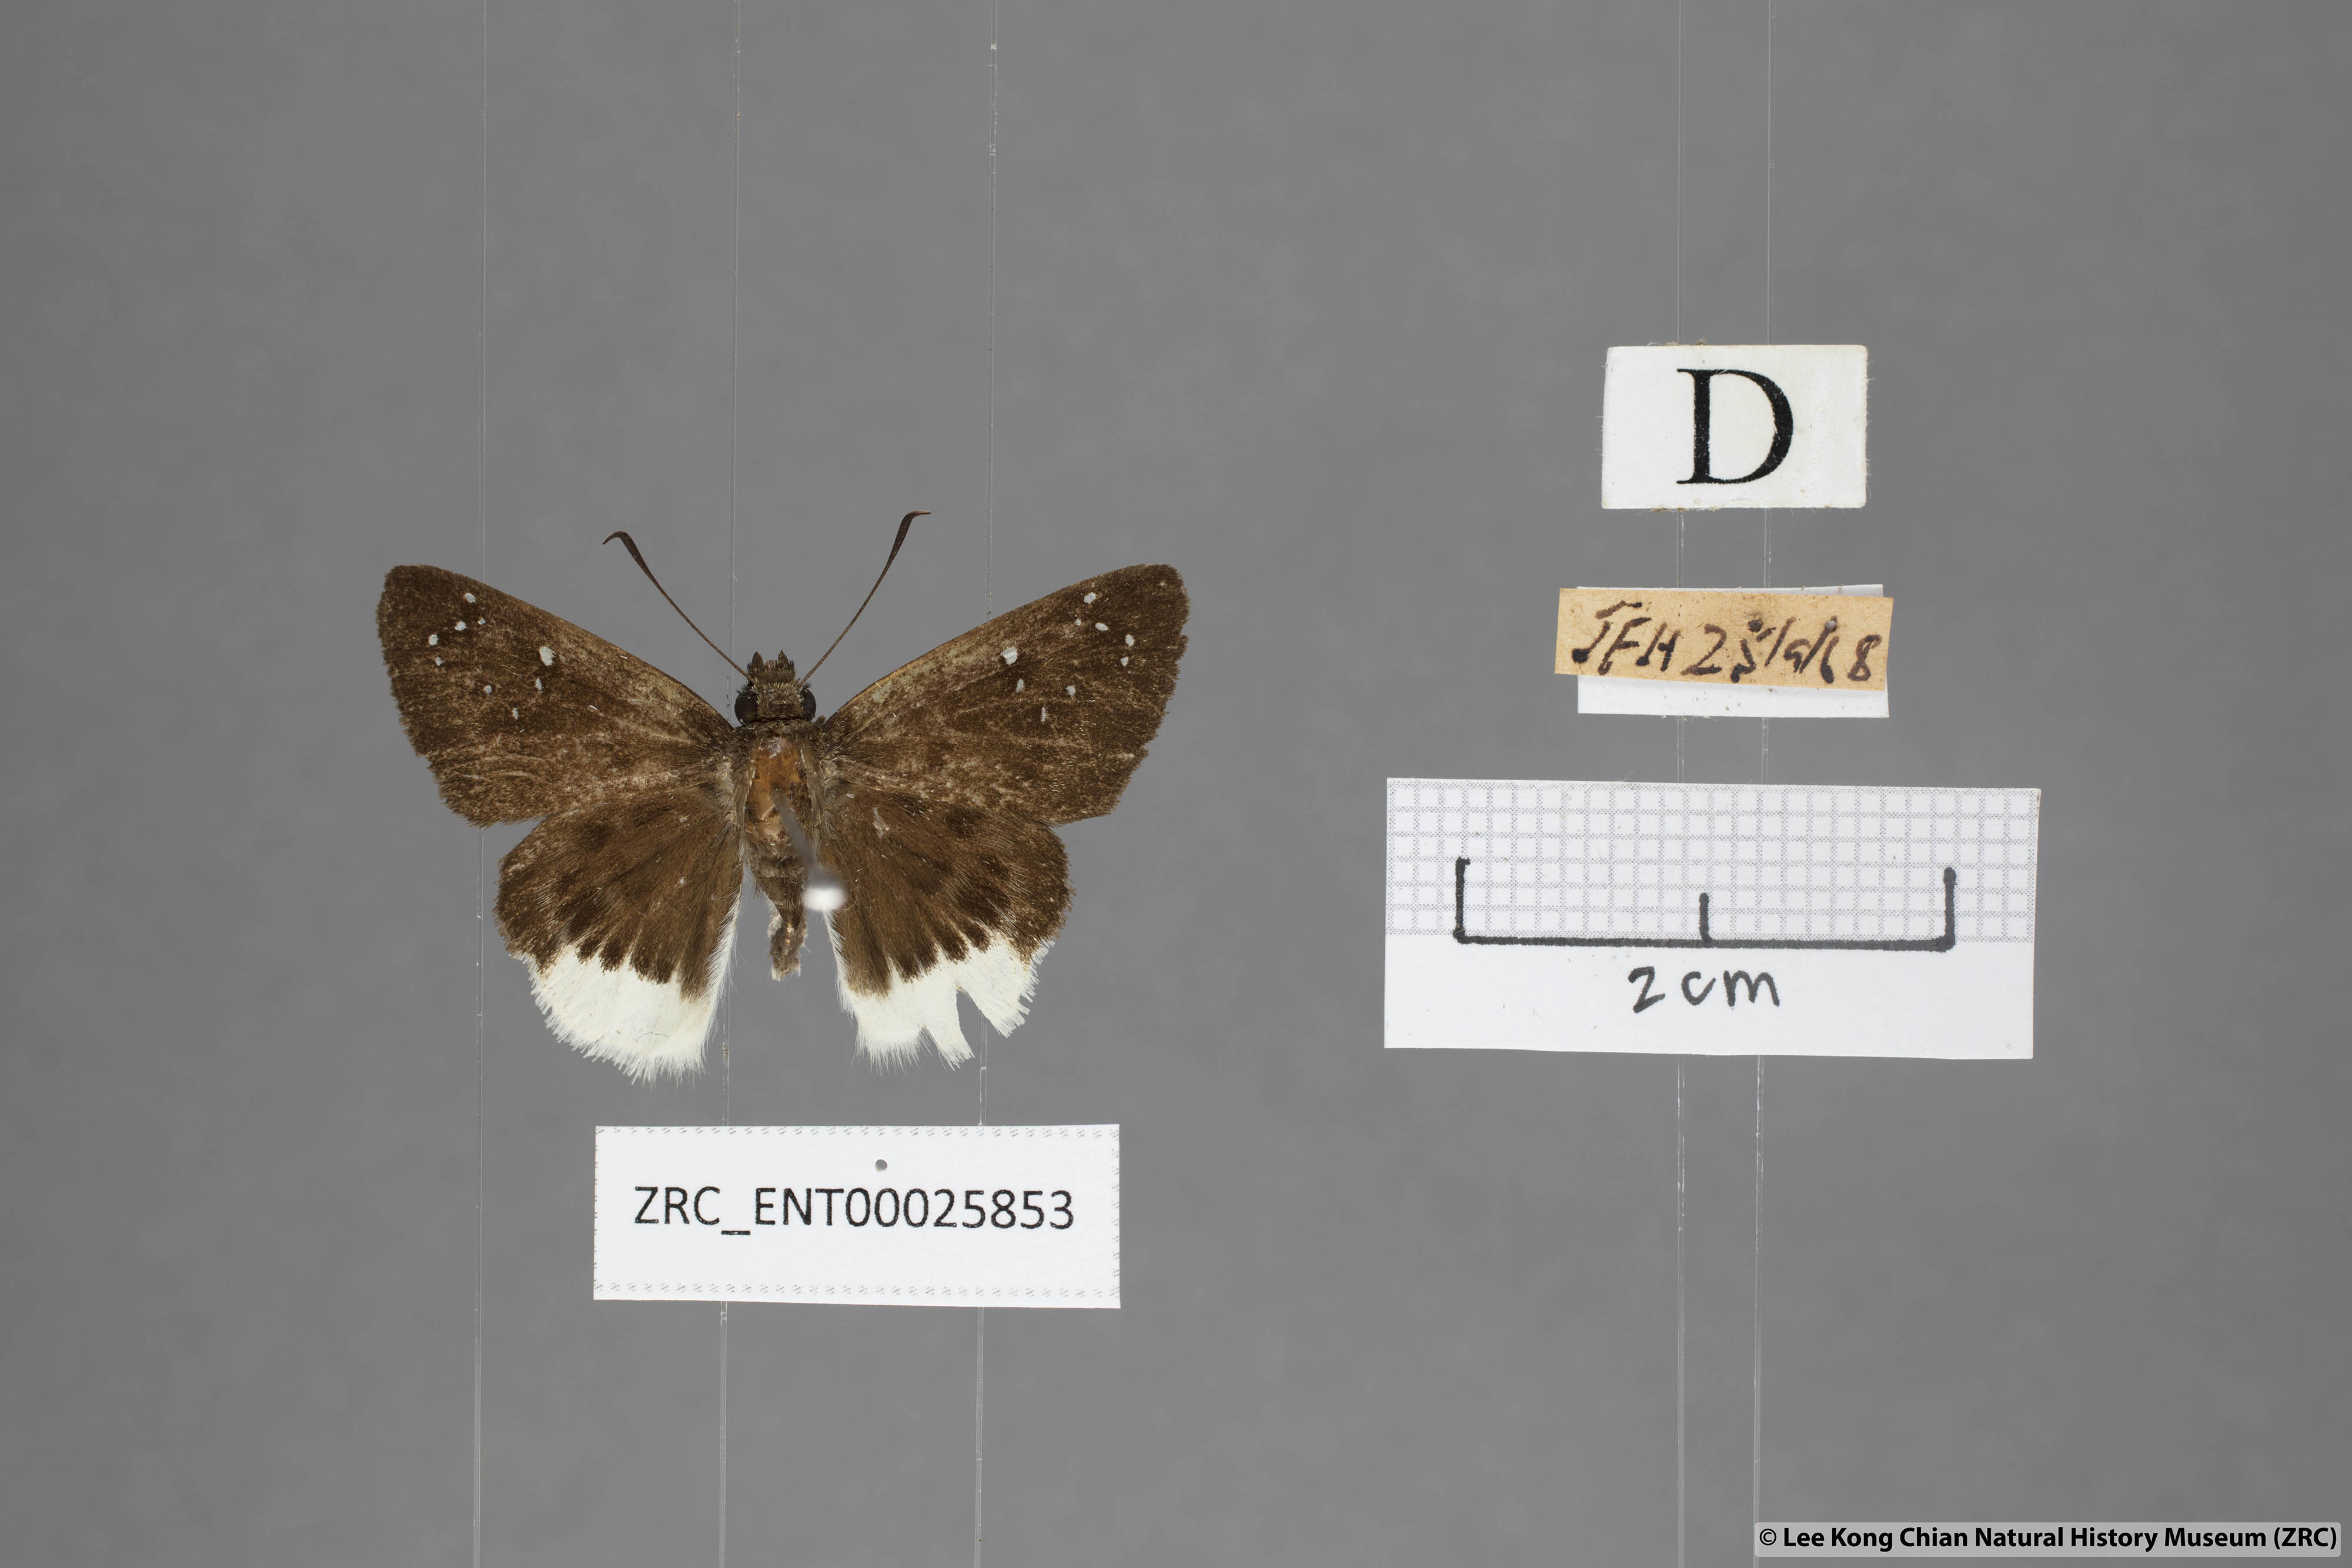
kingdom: Animalia
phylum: Arthropoda
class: Insecta
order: Lepidoptera
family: Hesperiidae
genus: Darpa
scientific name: Darpa pterica
